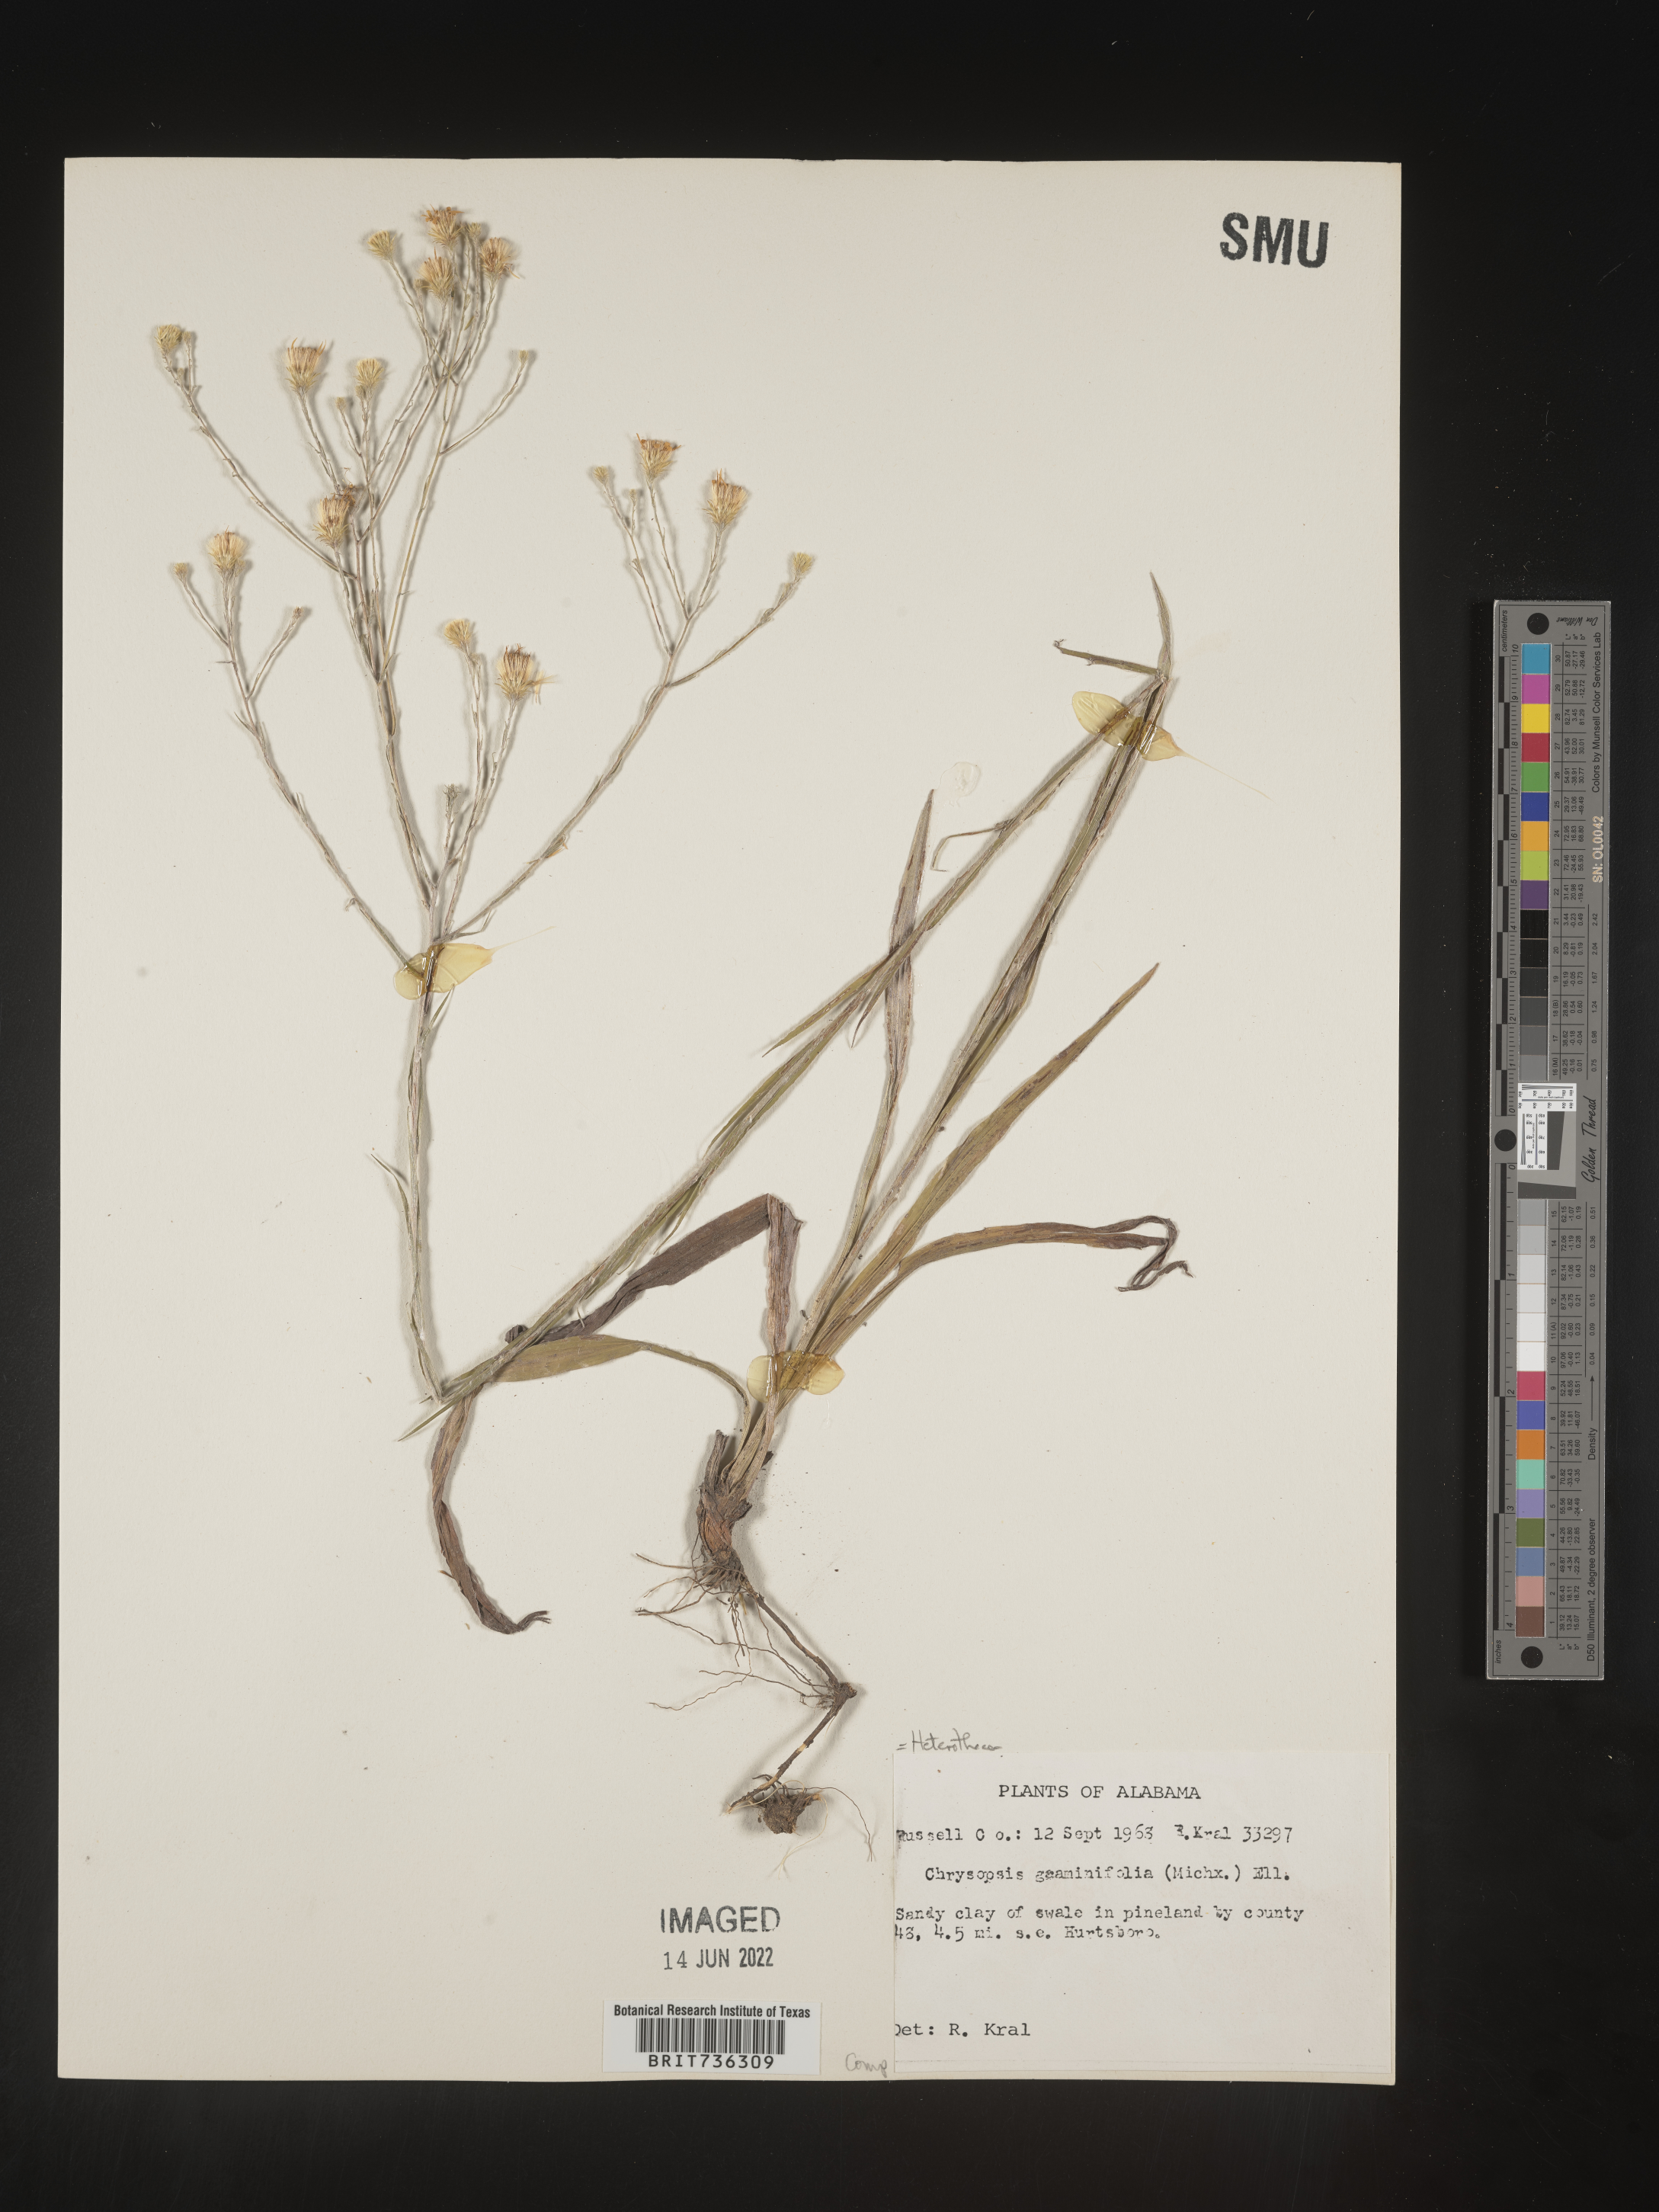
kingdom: Plantae
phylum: Tracheophyta
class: Magnoliopsida
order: Asterales
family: Asteraceae
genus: Pityopsis
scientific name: Pityopsis microcephala
